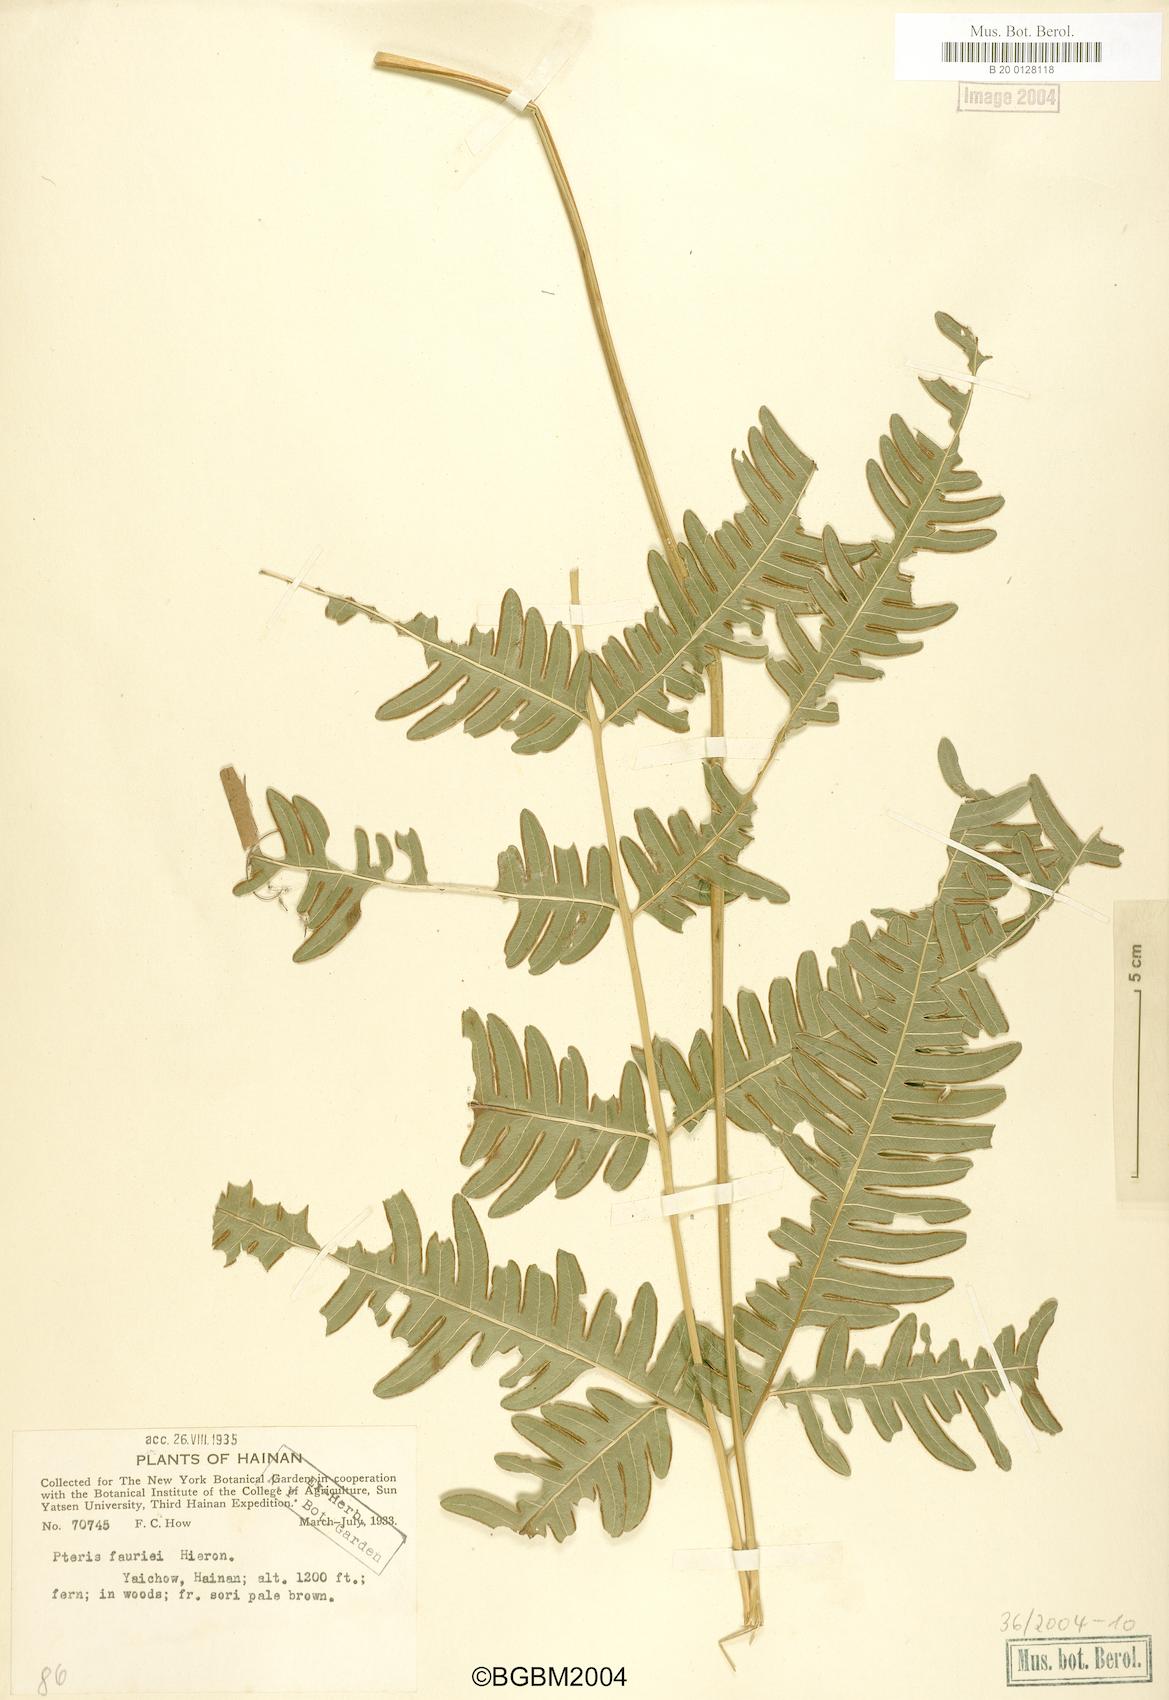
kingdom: Plantae
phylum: Tracheophyta
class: Polypodiopsida
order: Polypodiales
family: Pteridaceae
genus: Pteris
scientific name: Pteris fauriei
